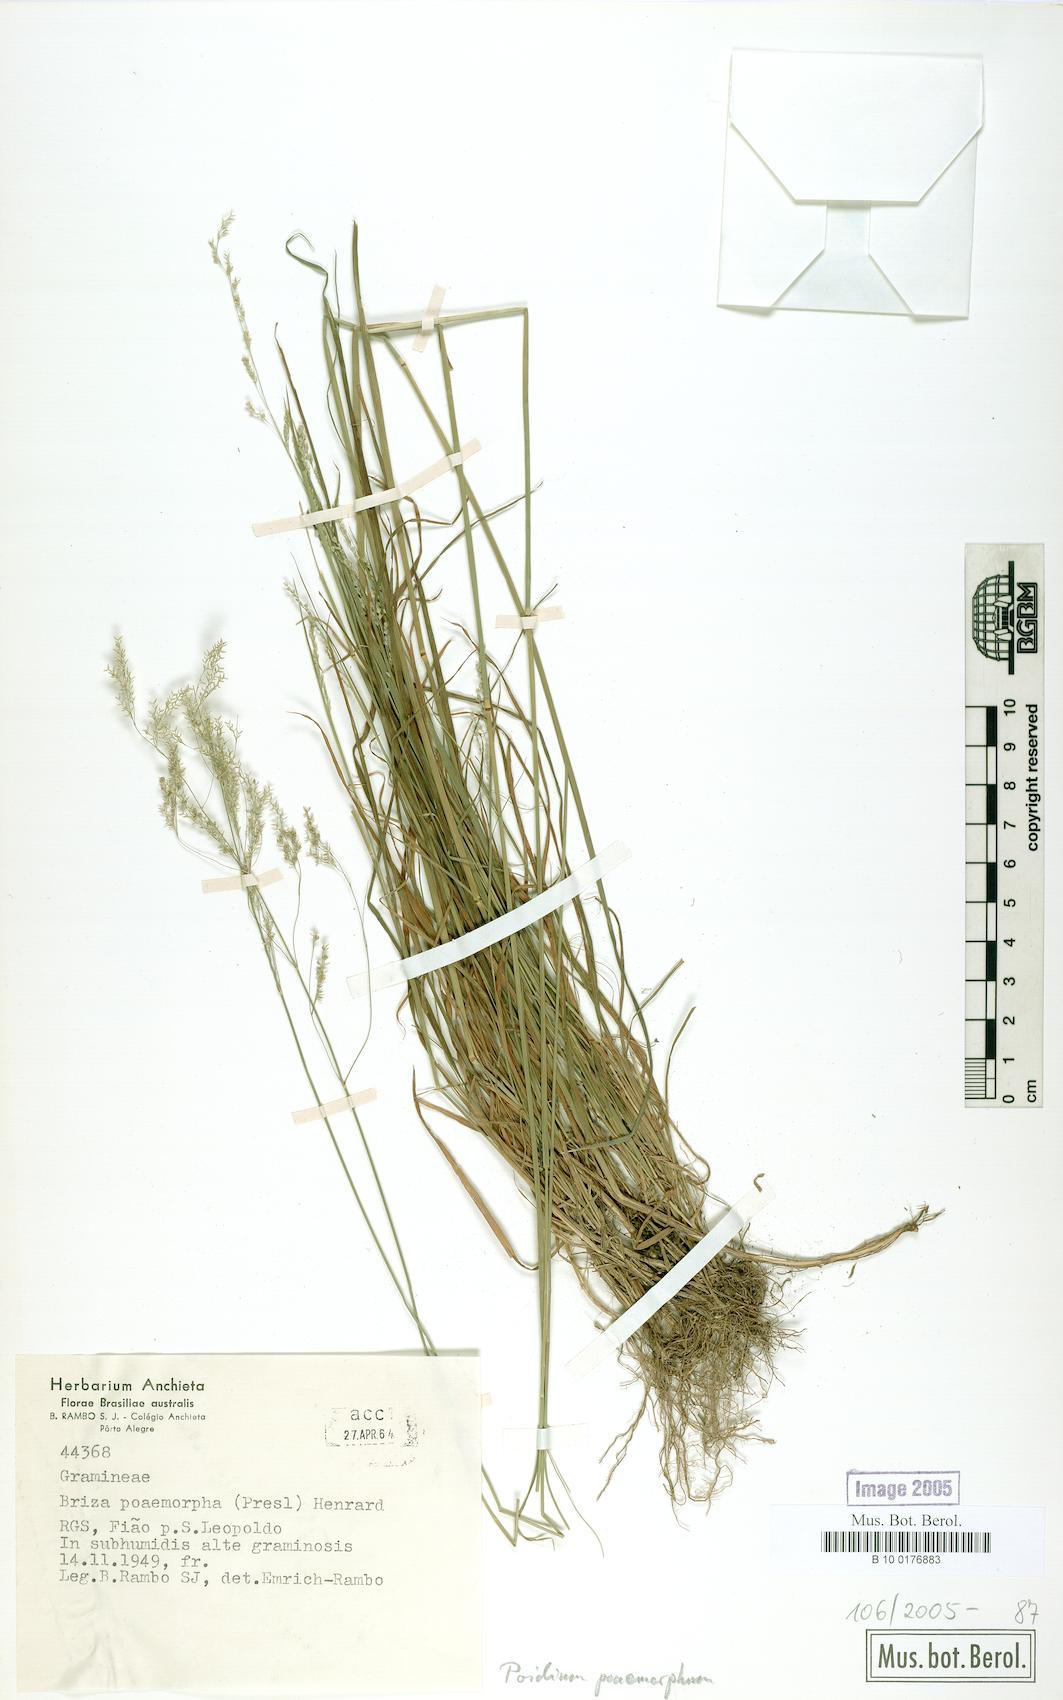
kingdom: Plantae
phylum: Tracheophyta
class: Liliopsida
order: Poales
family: Poaceae
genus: Chascolytrum
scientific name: Chascolytrum poomorphum
